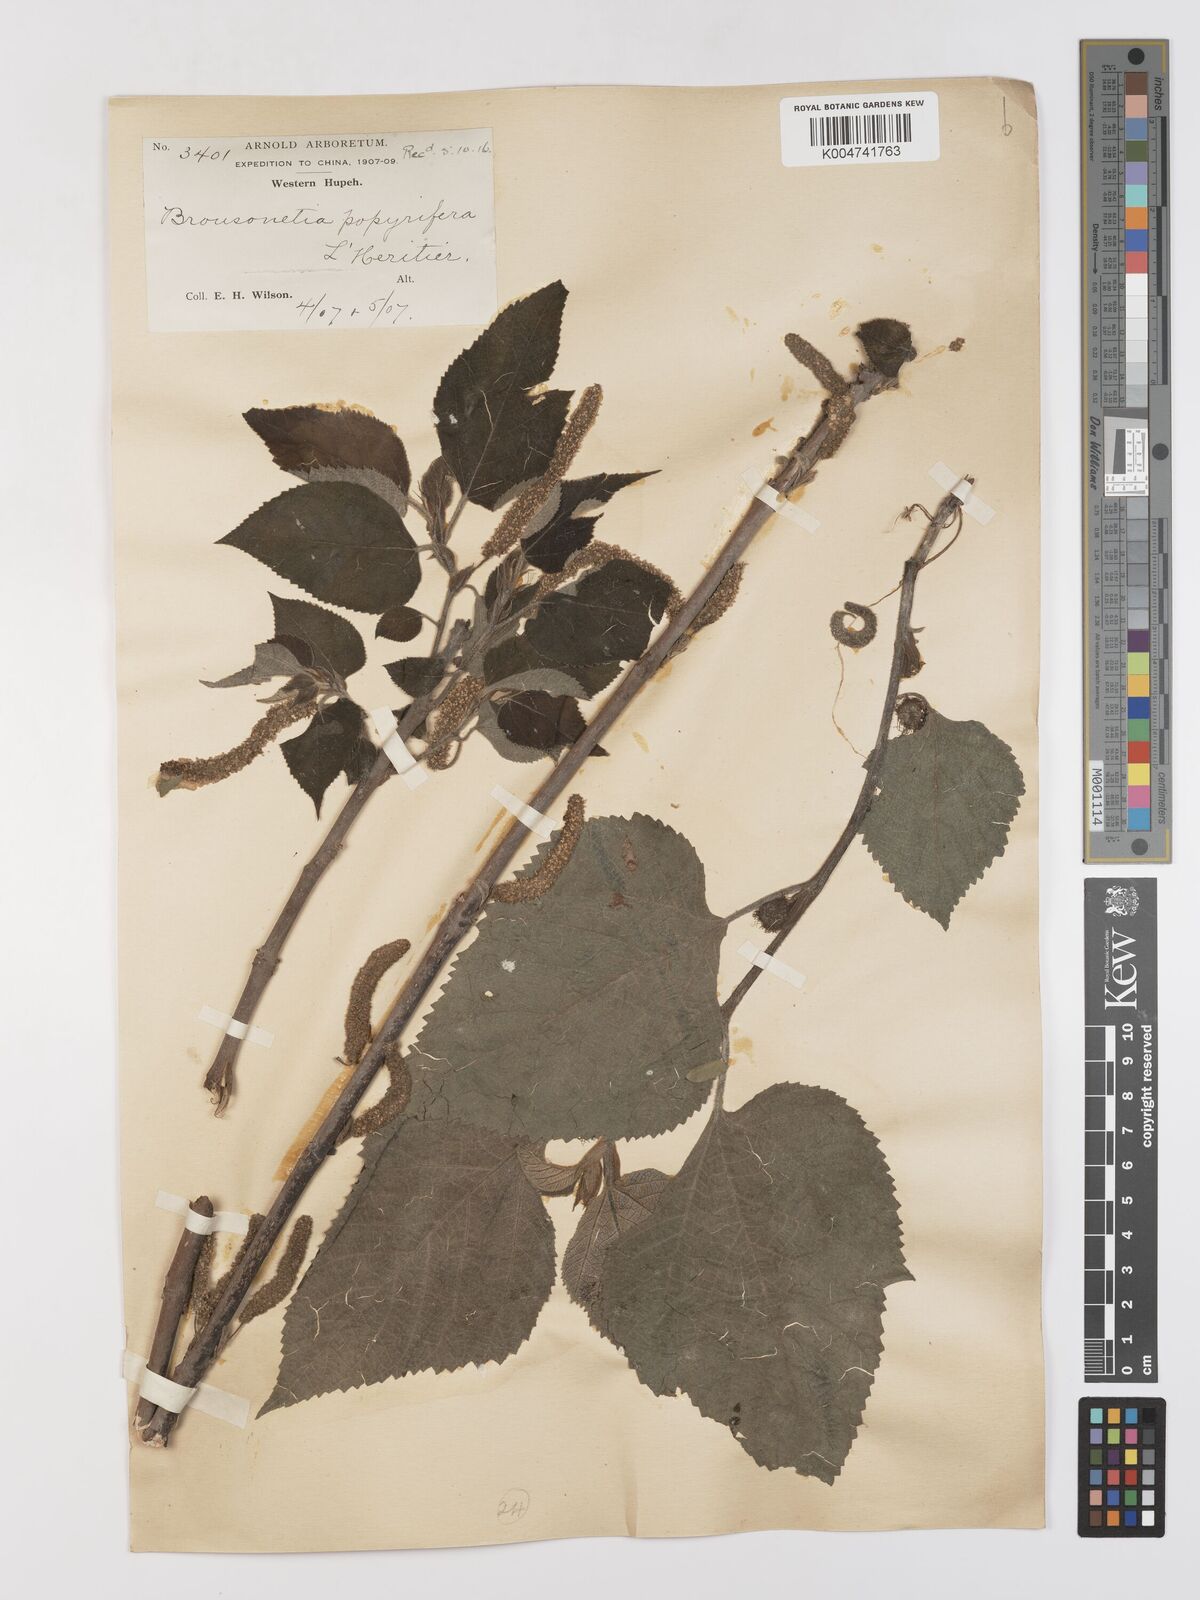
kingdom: Plantae
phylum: Tracheophyta
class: Magnoliopsida
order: Rosales
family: Moraceae
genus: Broussonetia
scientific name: Broussonetia
